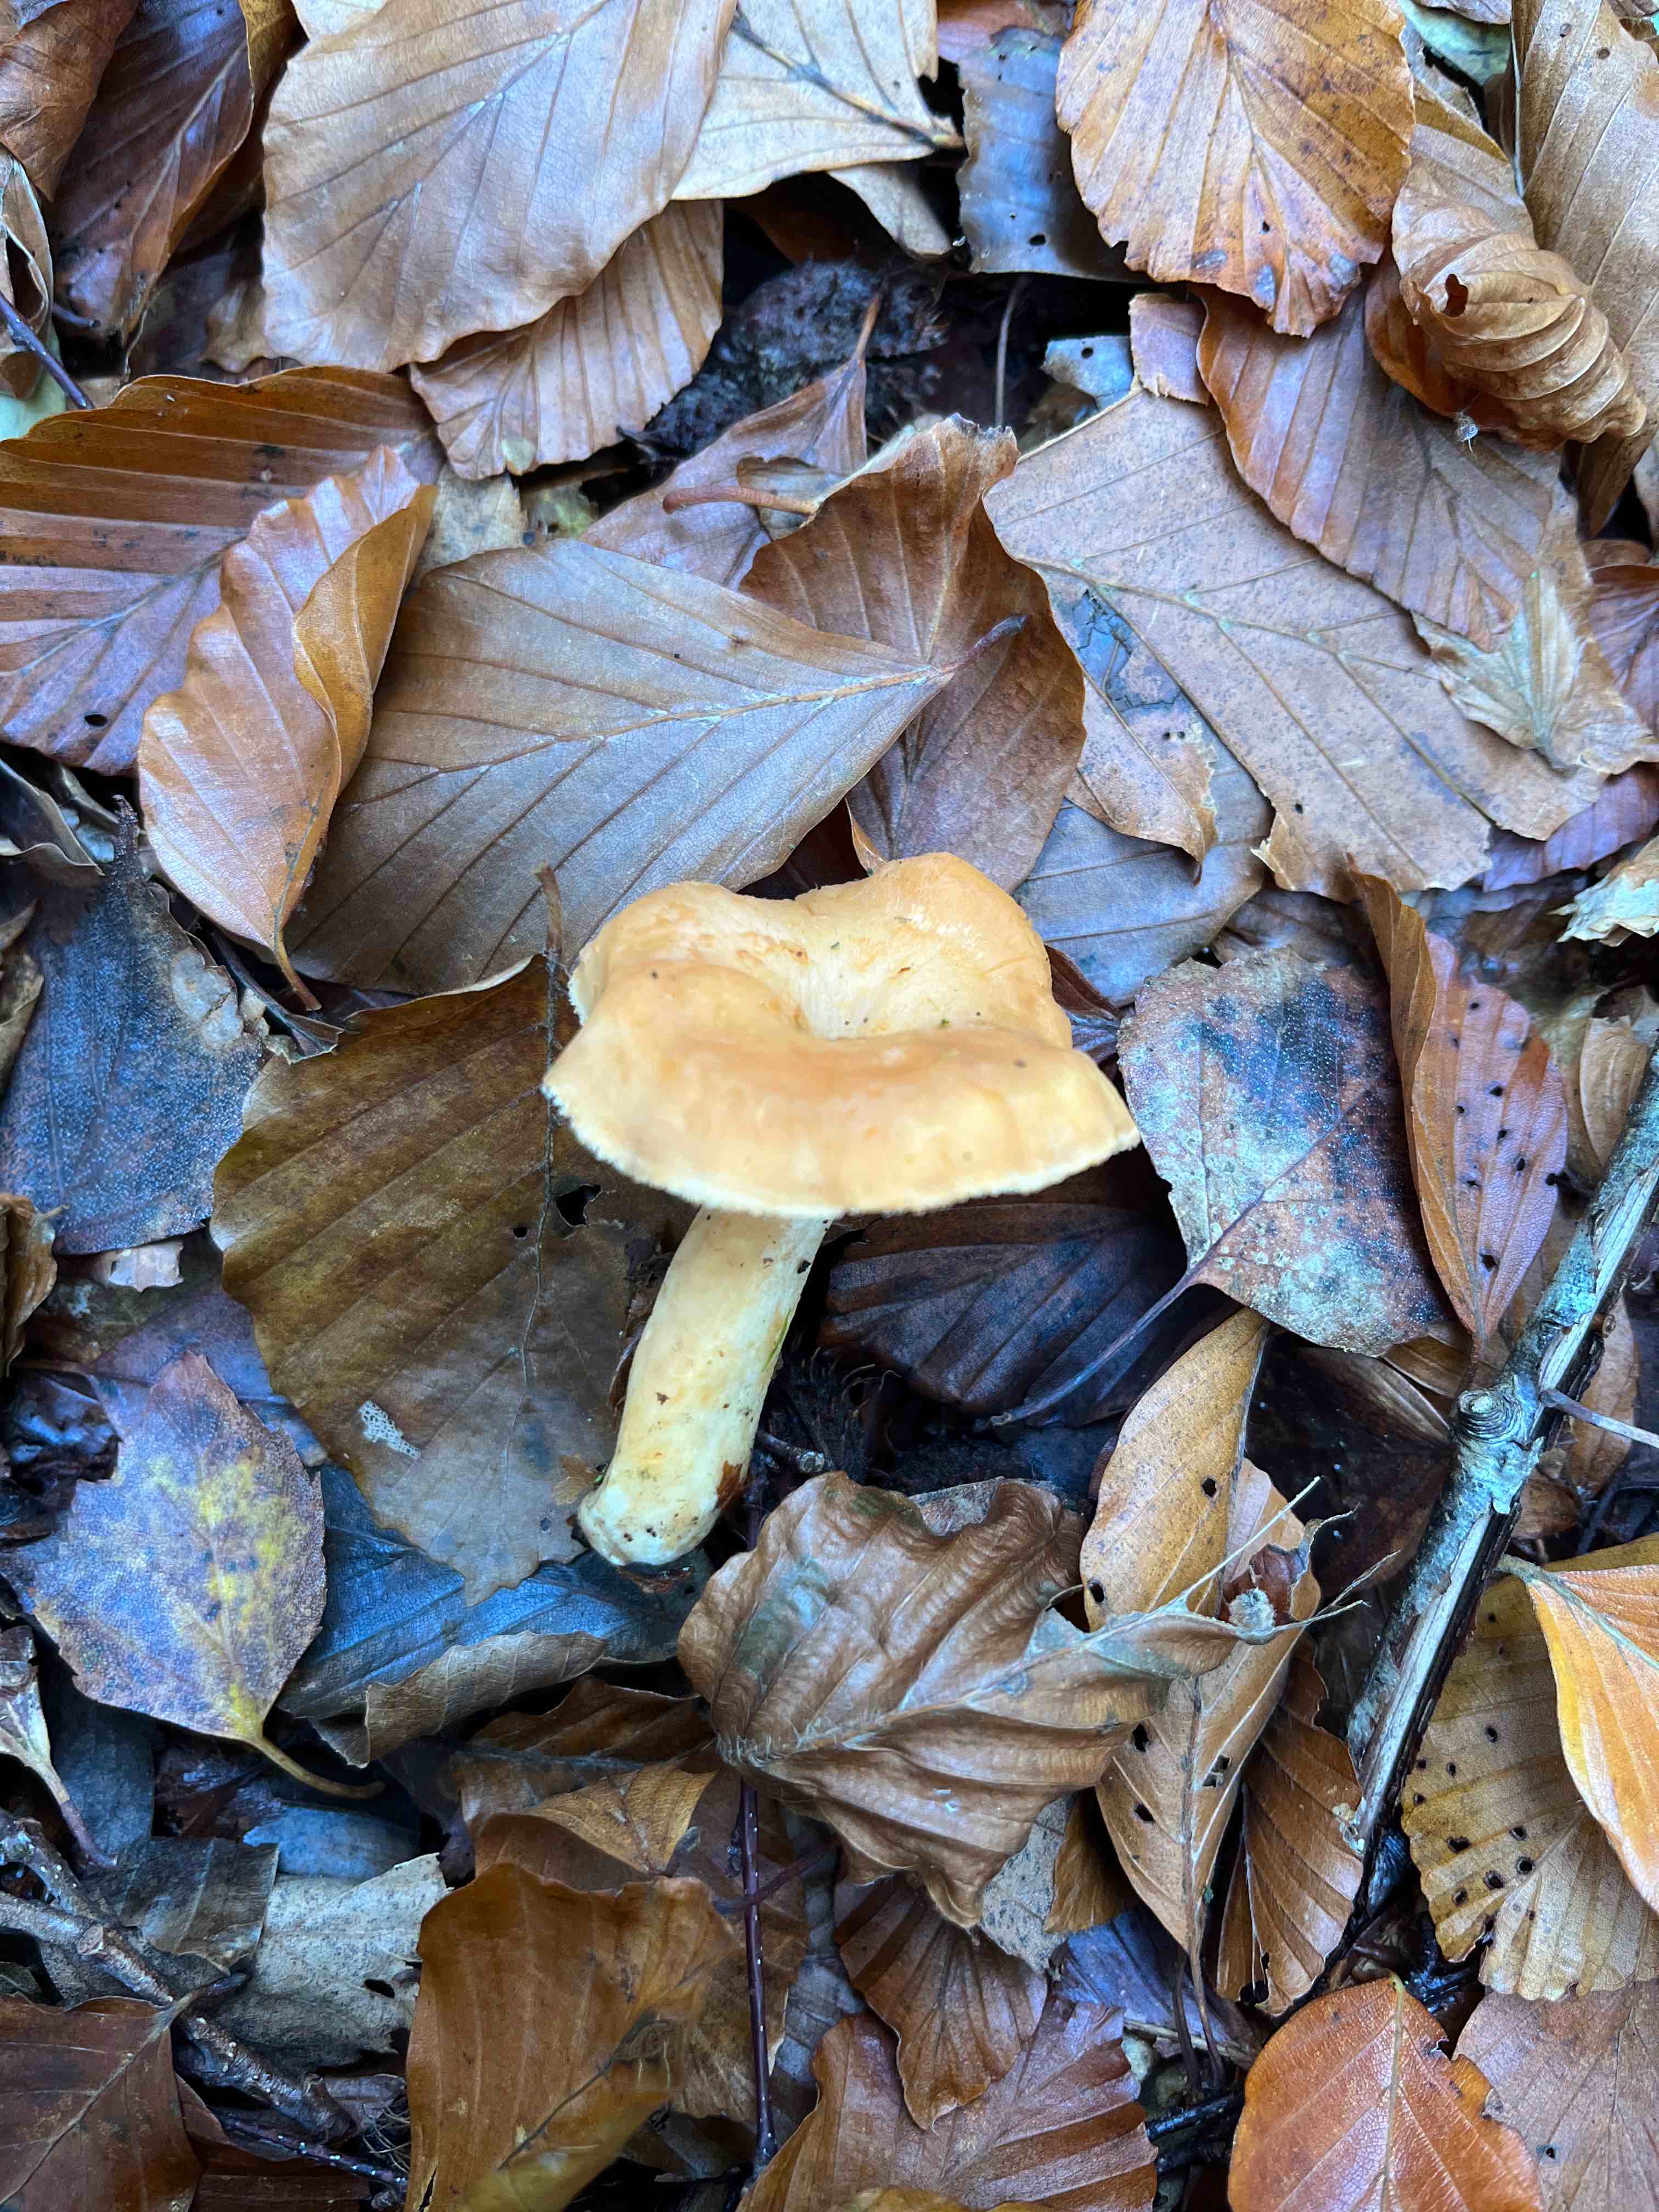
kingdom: Fungi
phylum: Basidiomycota
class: Agaricomycetes
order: Cantharellales
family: Hydnaceae
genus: Hydnum
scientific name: Hydnum umbilicatum
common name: navle-pigsvamp
